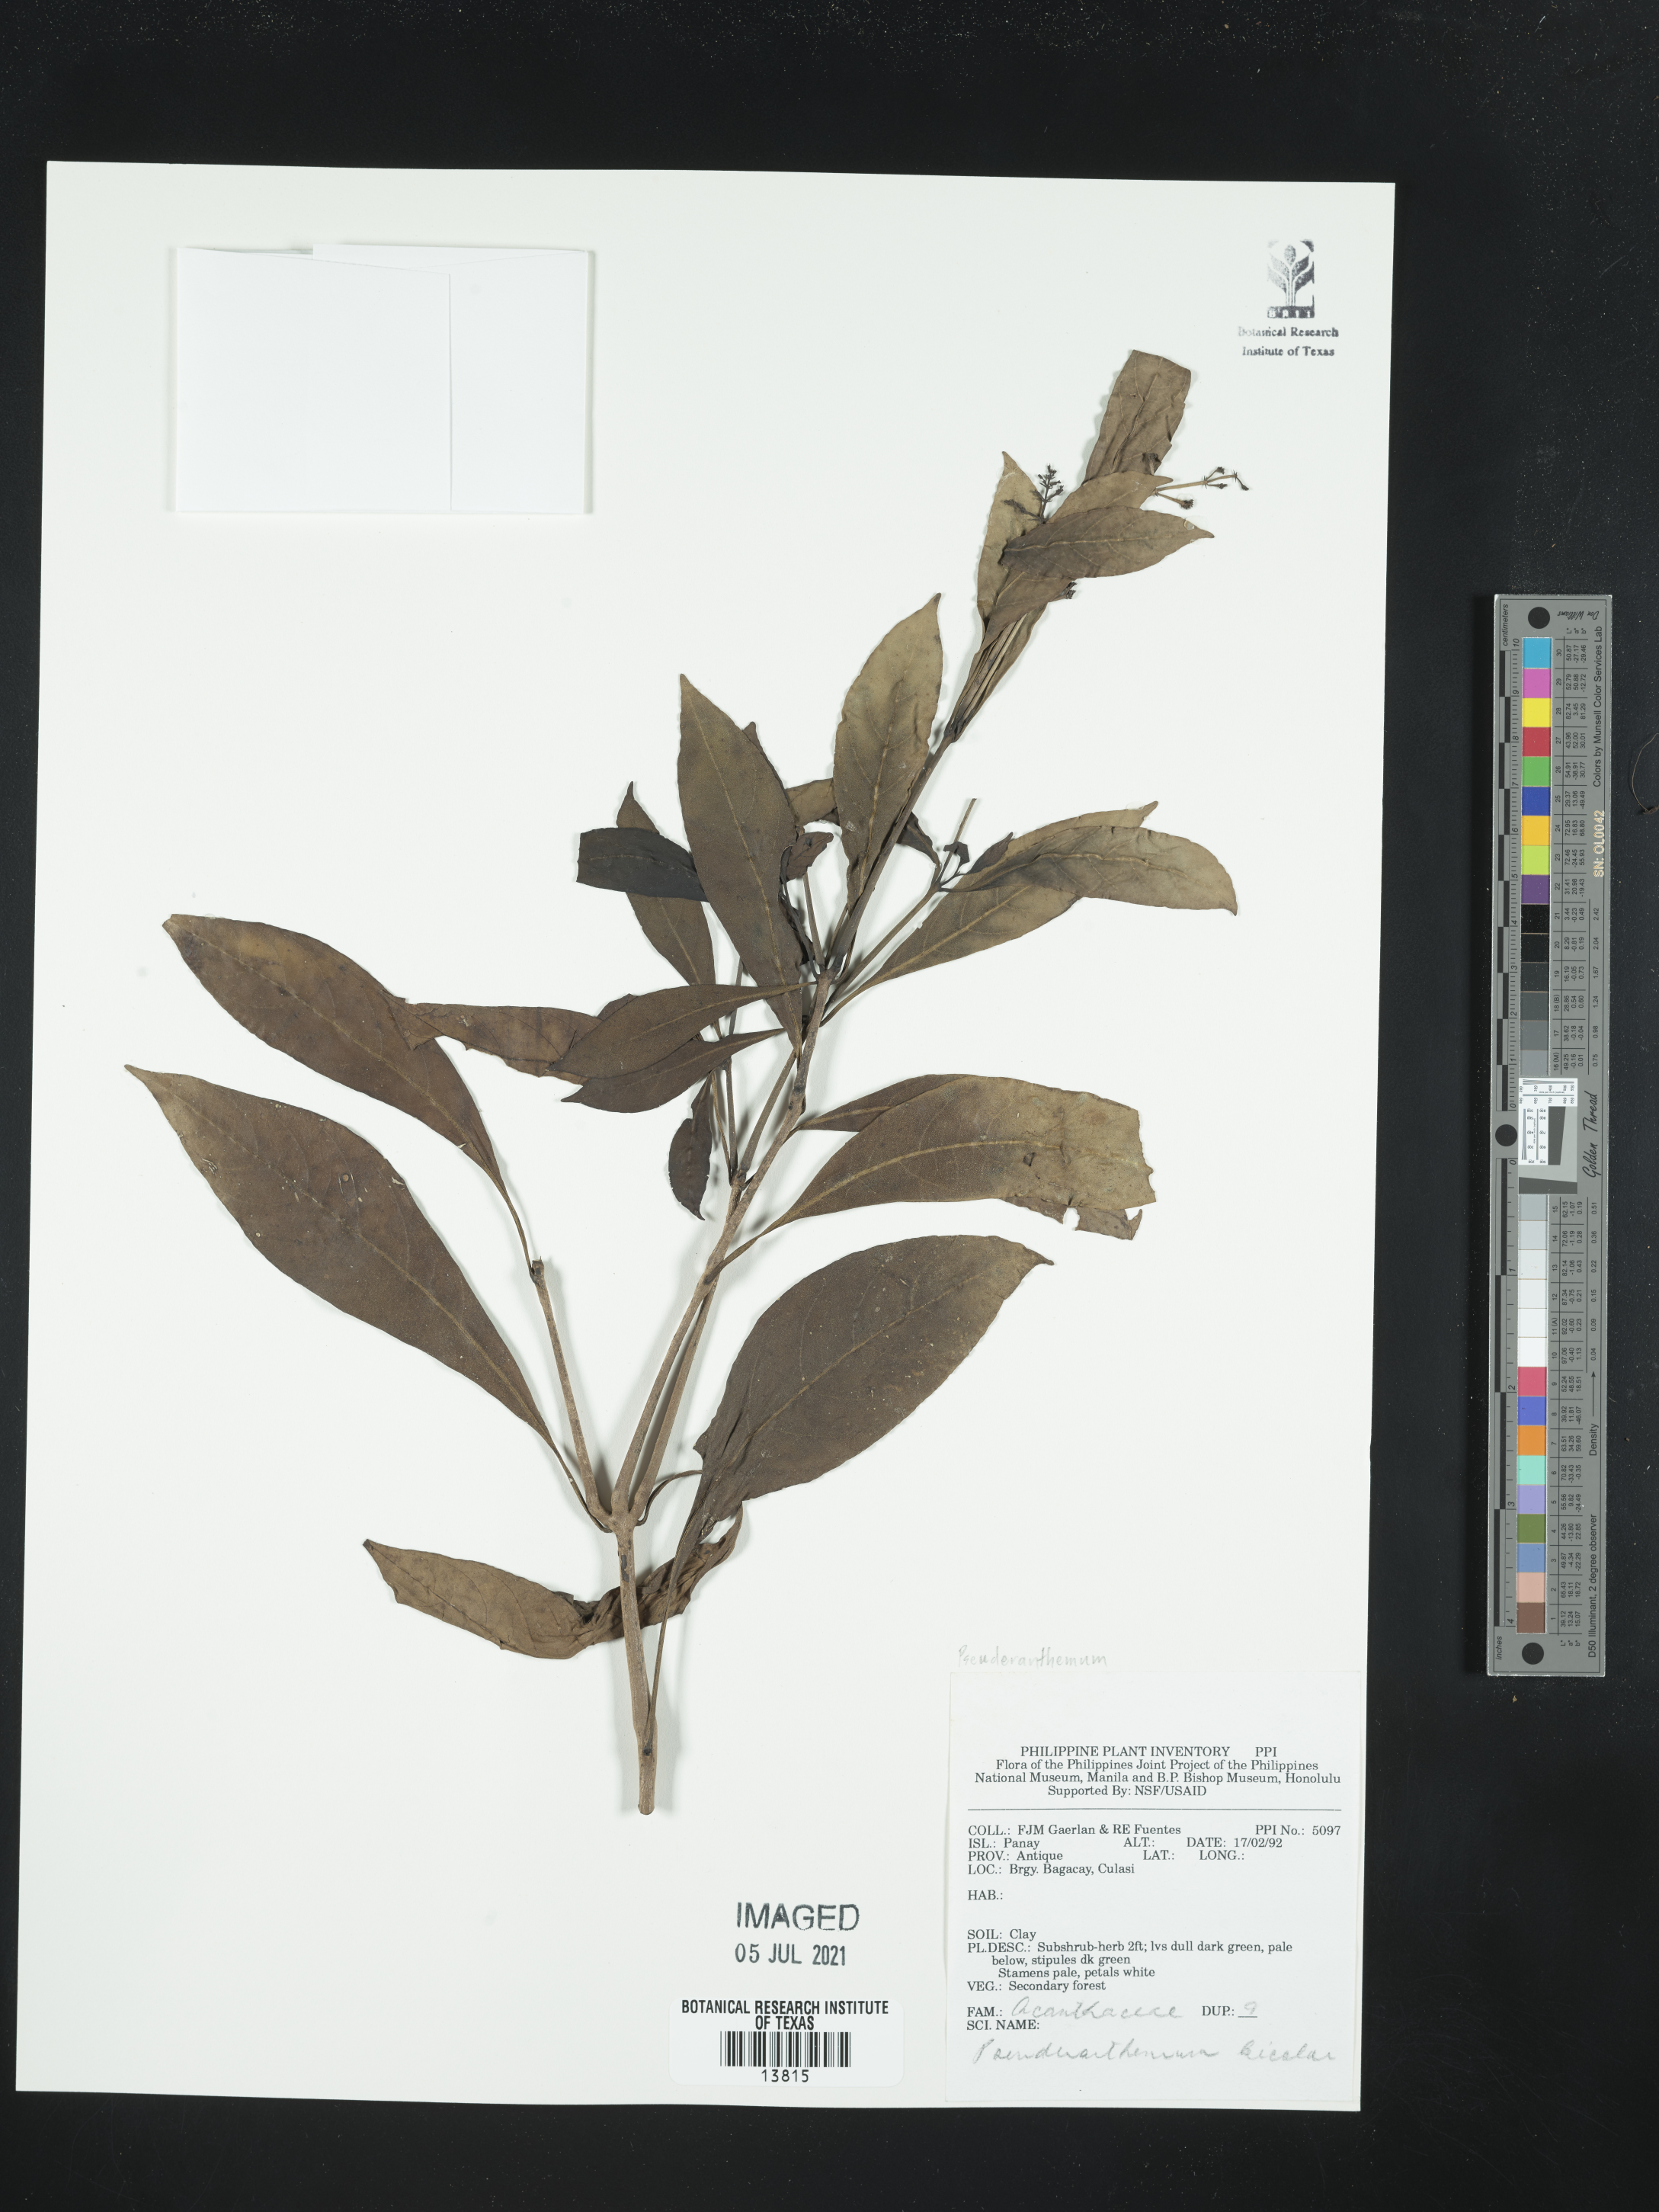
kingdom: Plantae
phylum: Tracheophyta
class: Magnoliopsida
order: Lamiales
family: Acanthaceae
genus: Pseuderanthemum
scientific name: Pseuderanthemum bicolor
